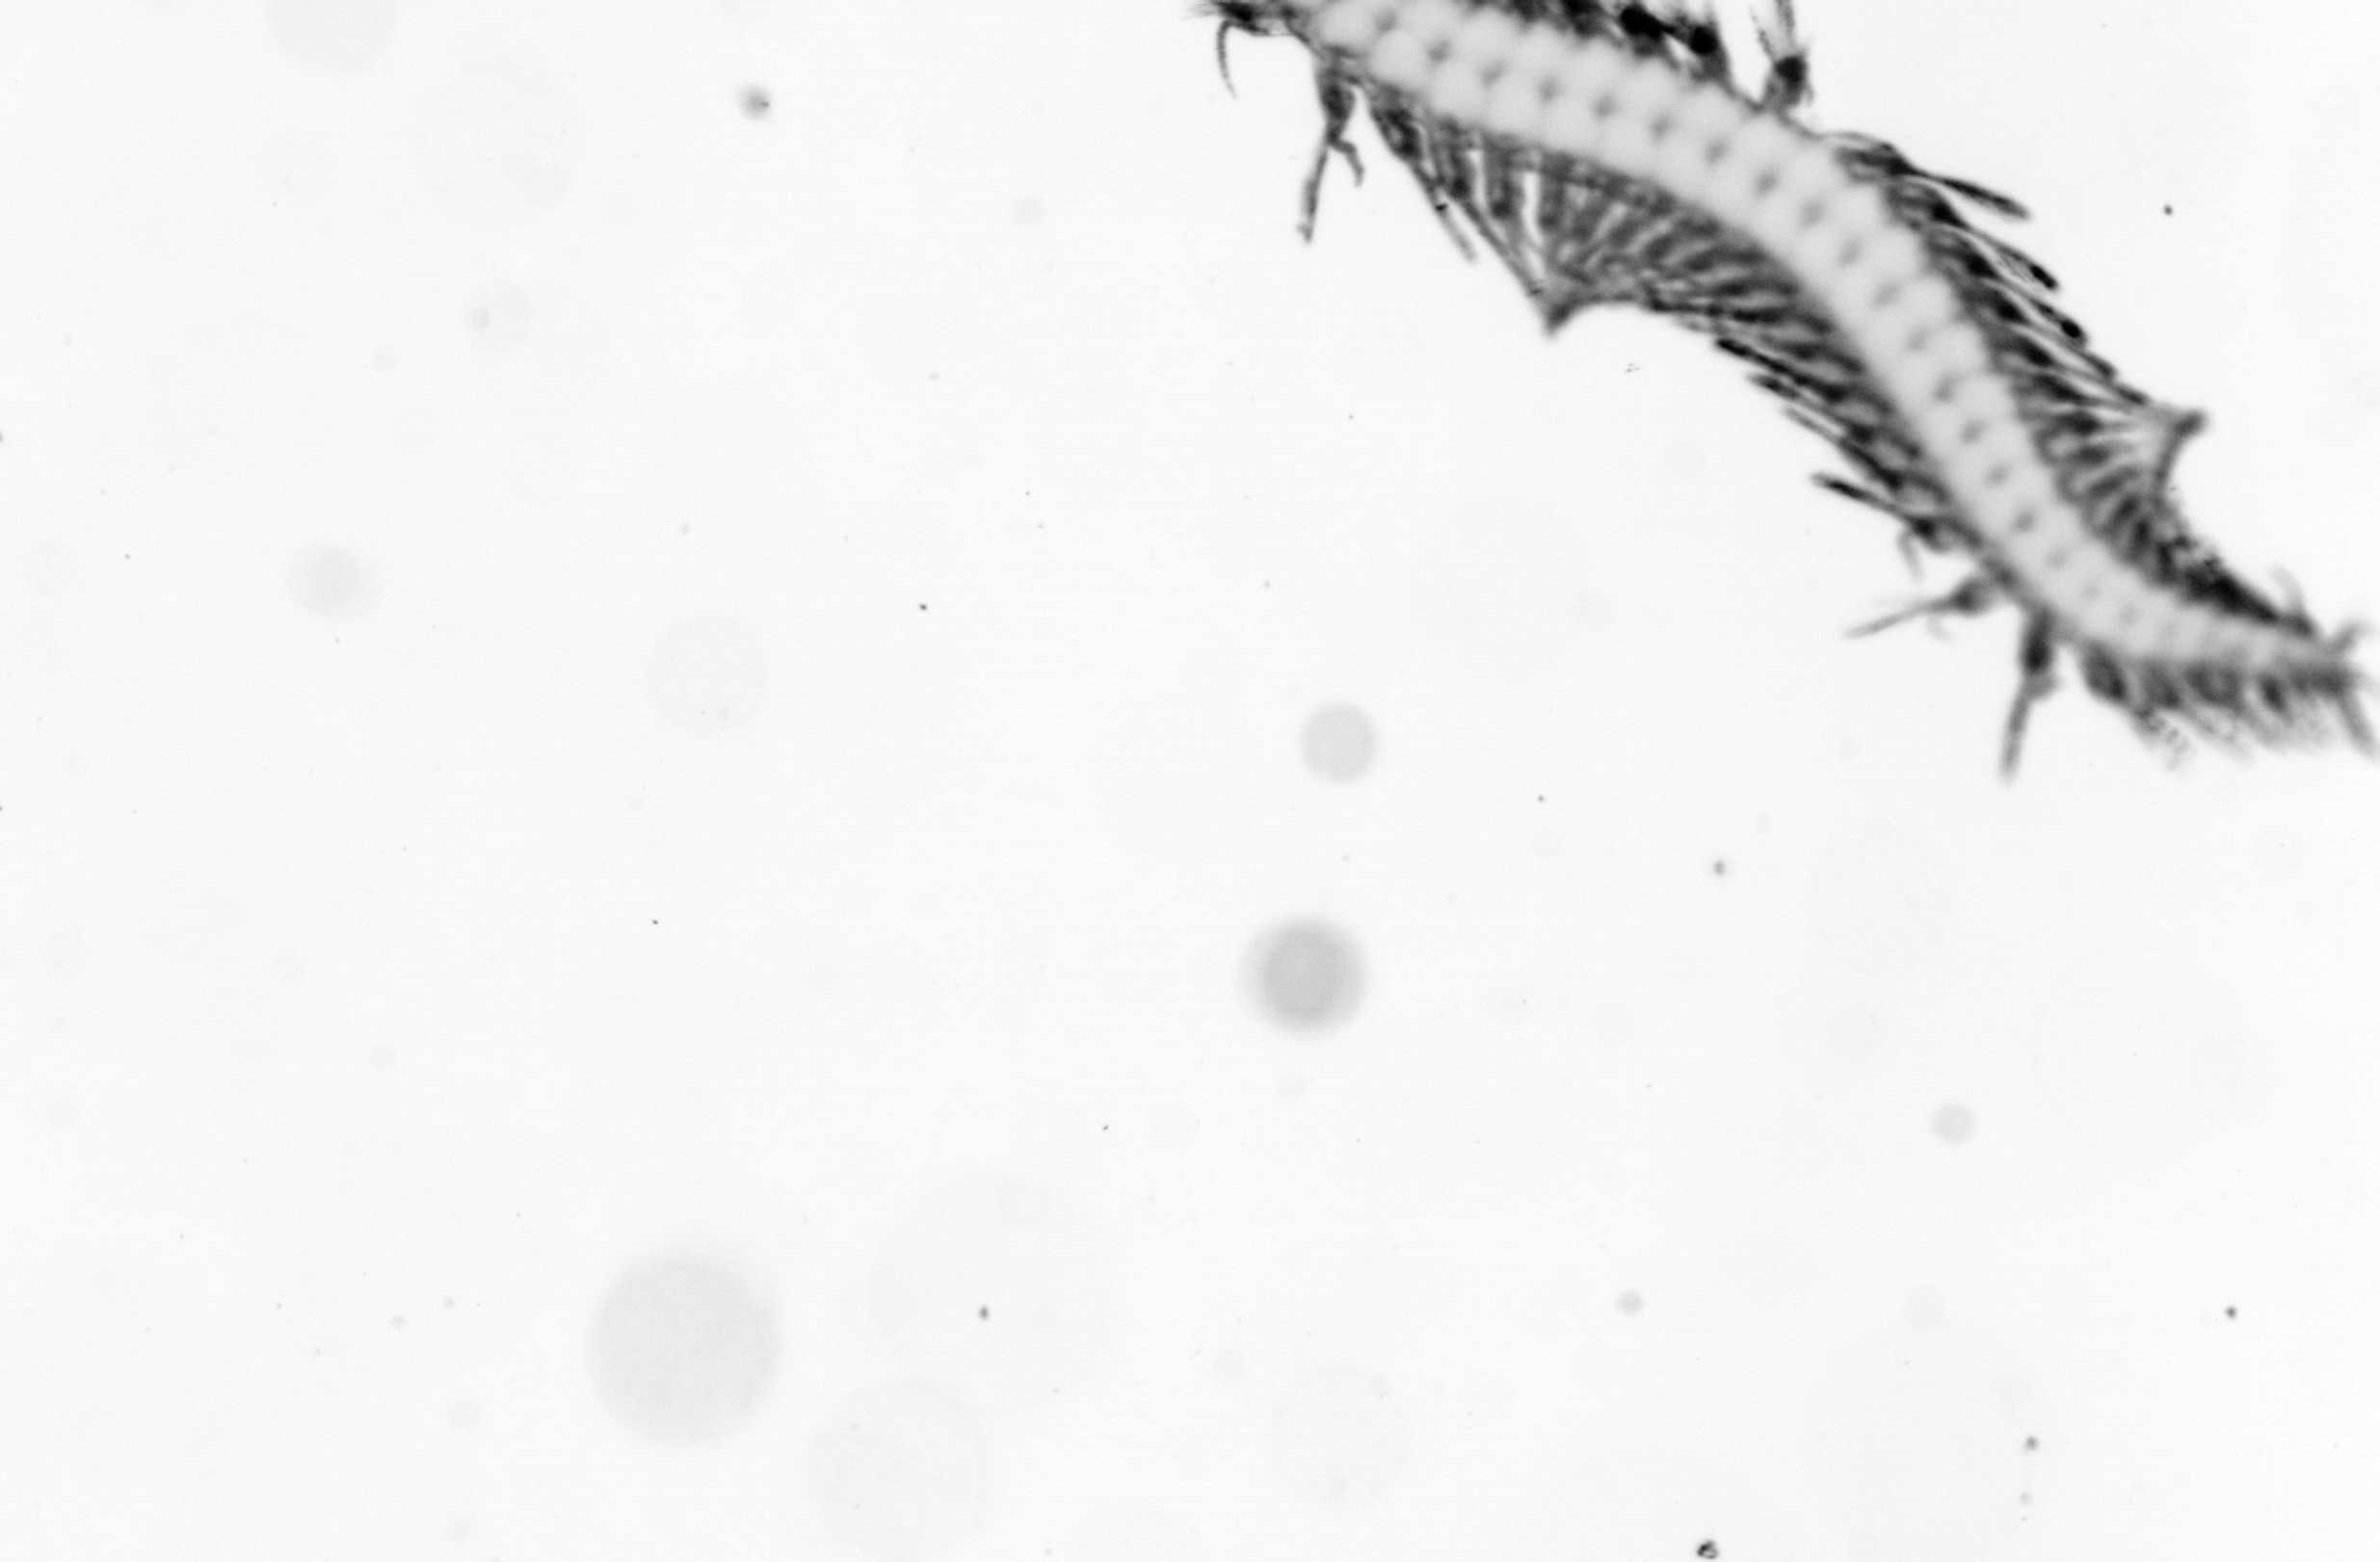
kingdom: Animalia
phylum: Annelida
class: Polychaeta
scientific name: Polychaeta
